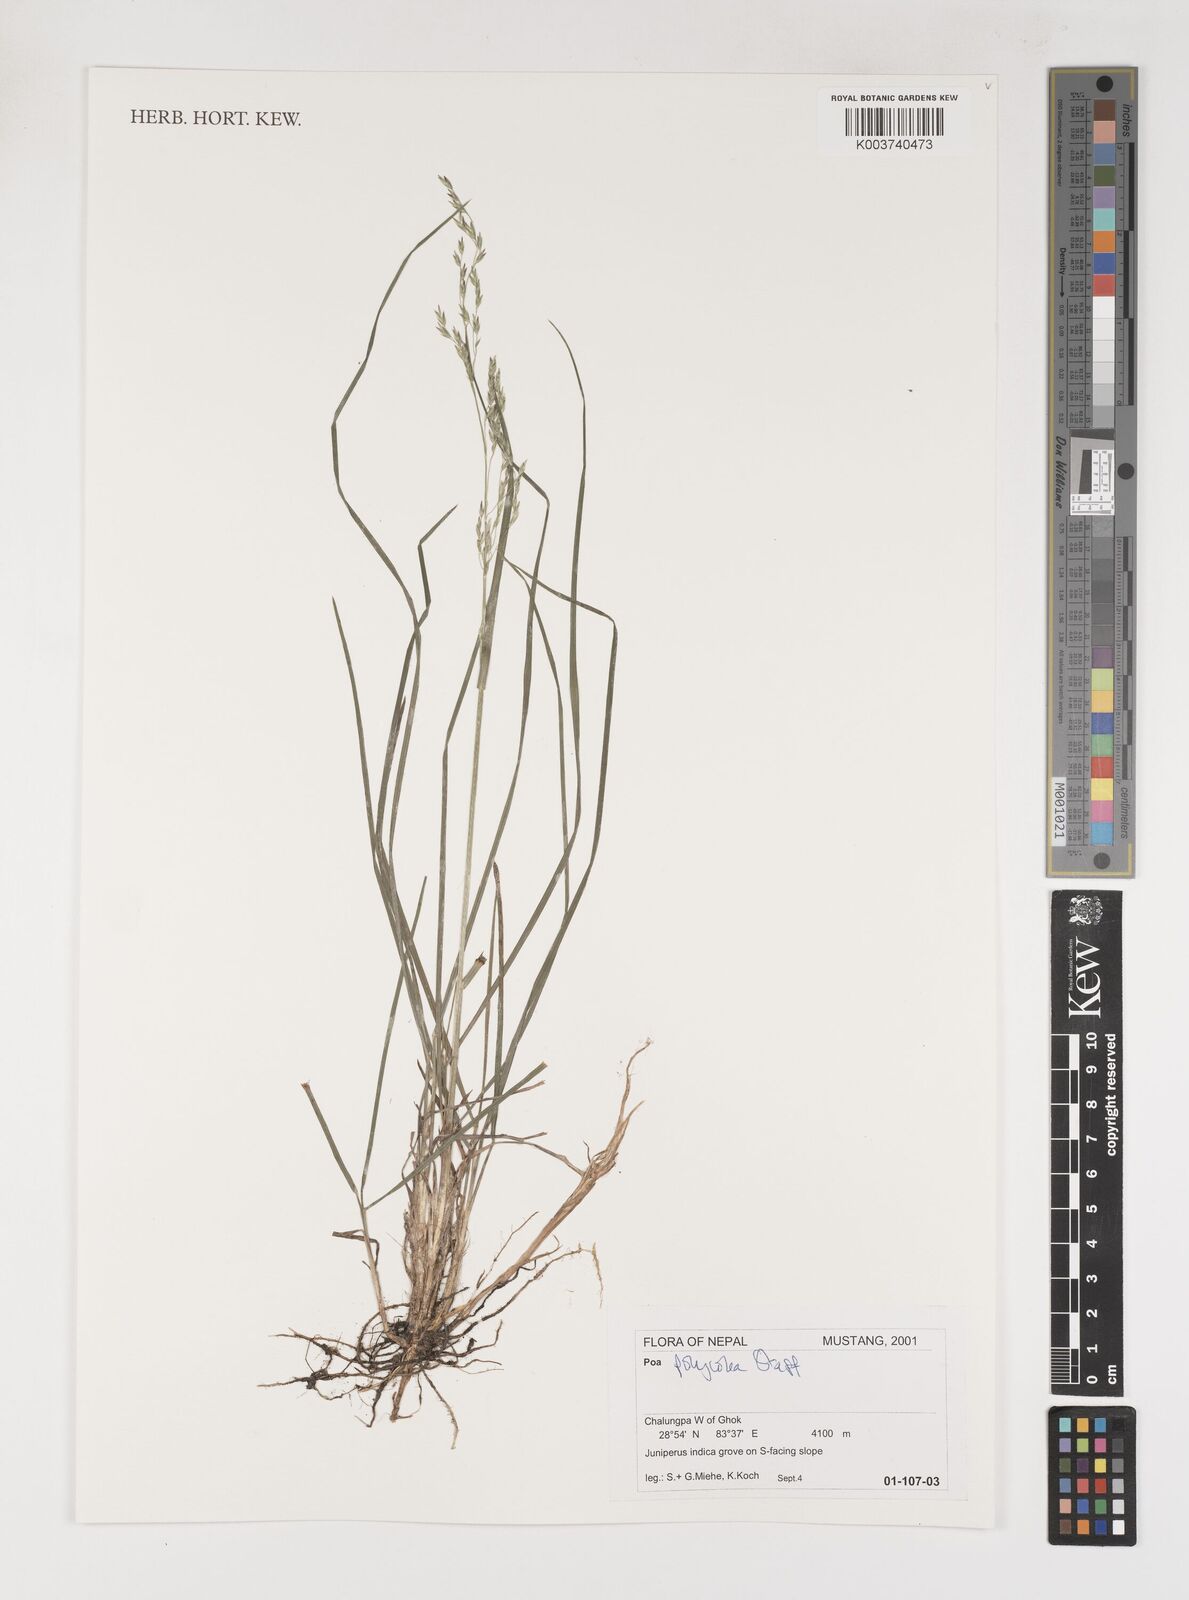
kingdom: Plantae
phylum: Tracheophyta
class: Liliopsida
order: Poales
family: Poaceae
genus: Poa
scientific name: Poa polycolea
